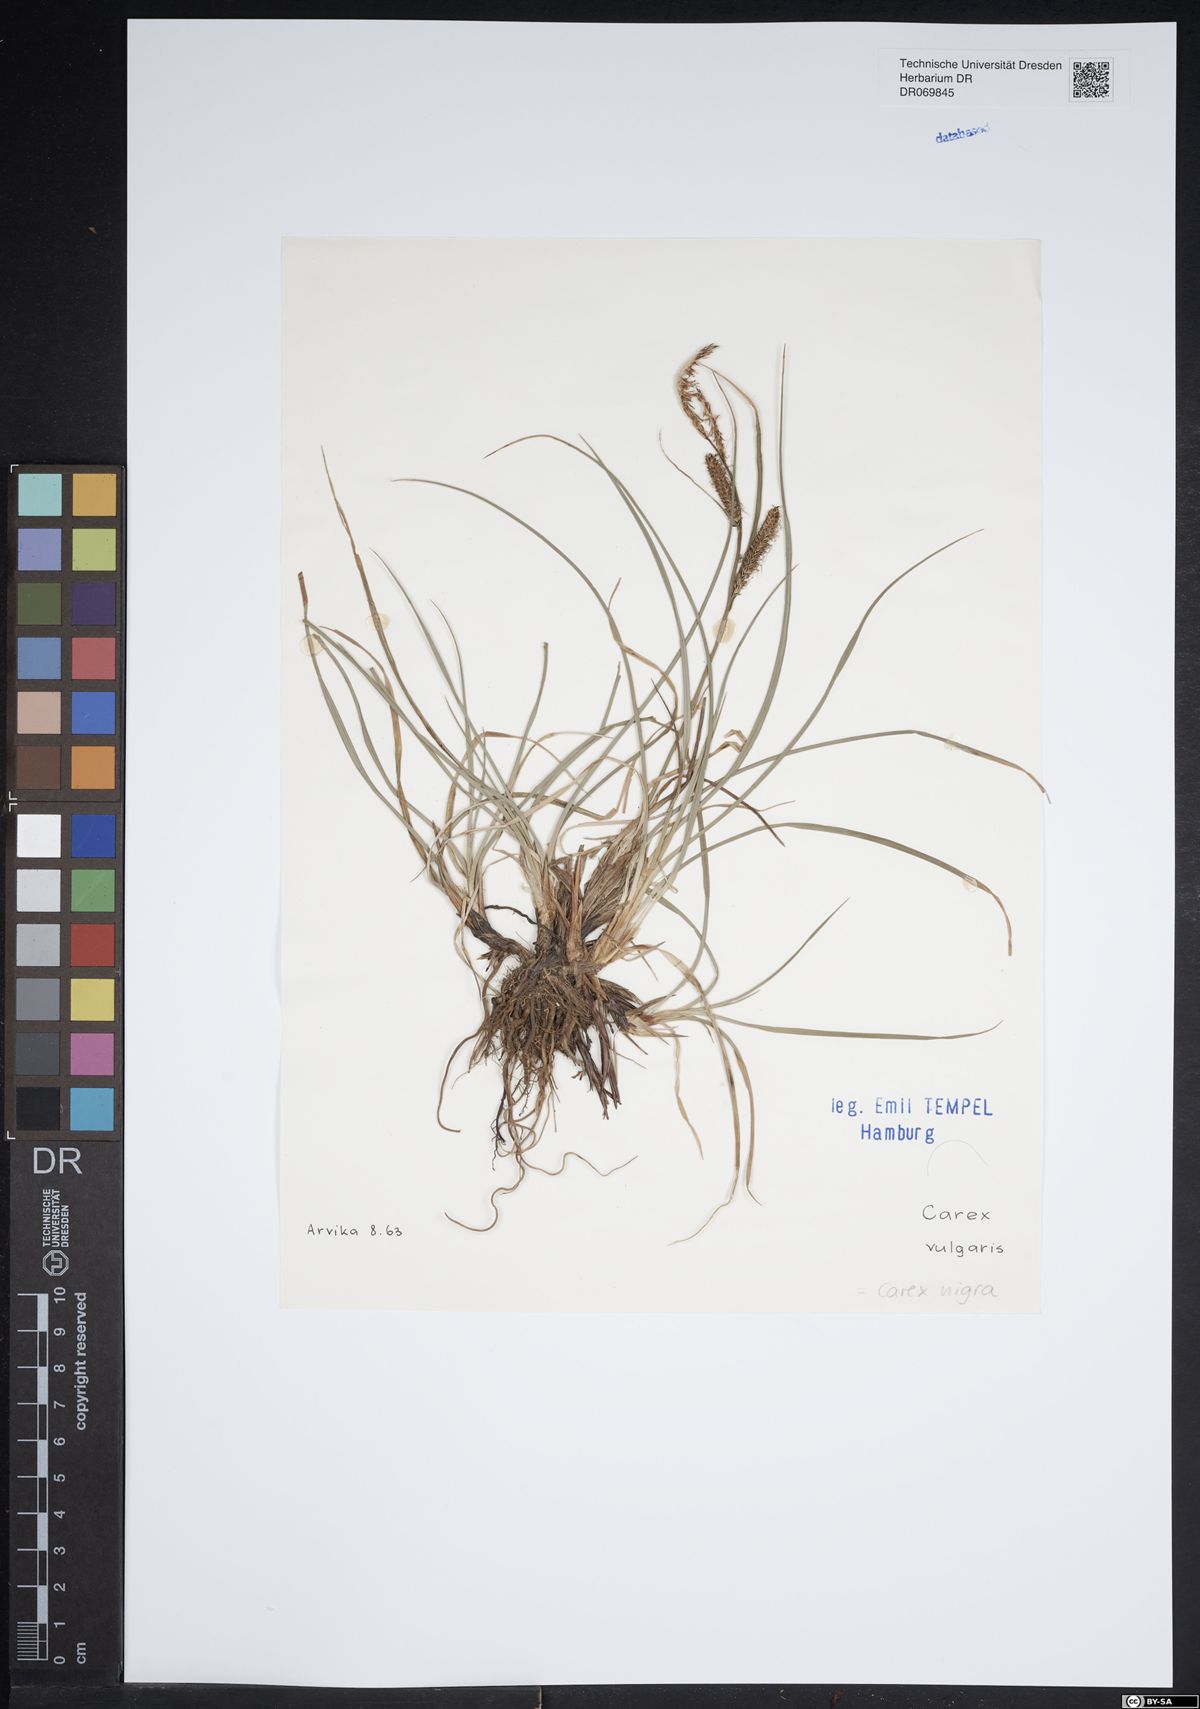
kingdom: Plantae
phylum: Tracheophyta
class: Liliopsida
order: Poales
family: Cyperaceae
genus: Carex
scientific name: Carex nigra
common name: Common sedge
